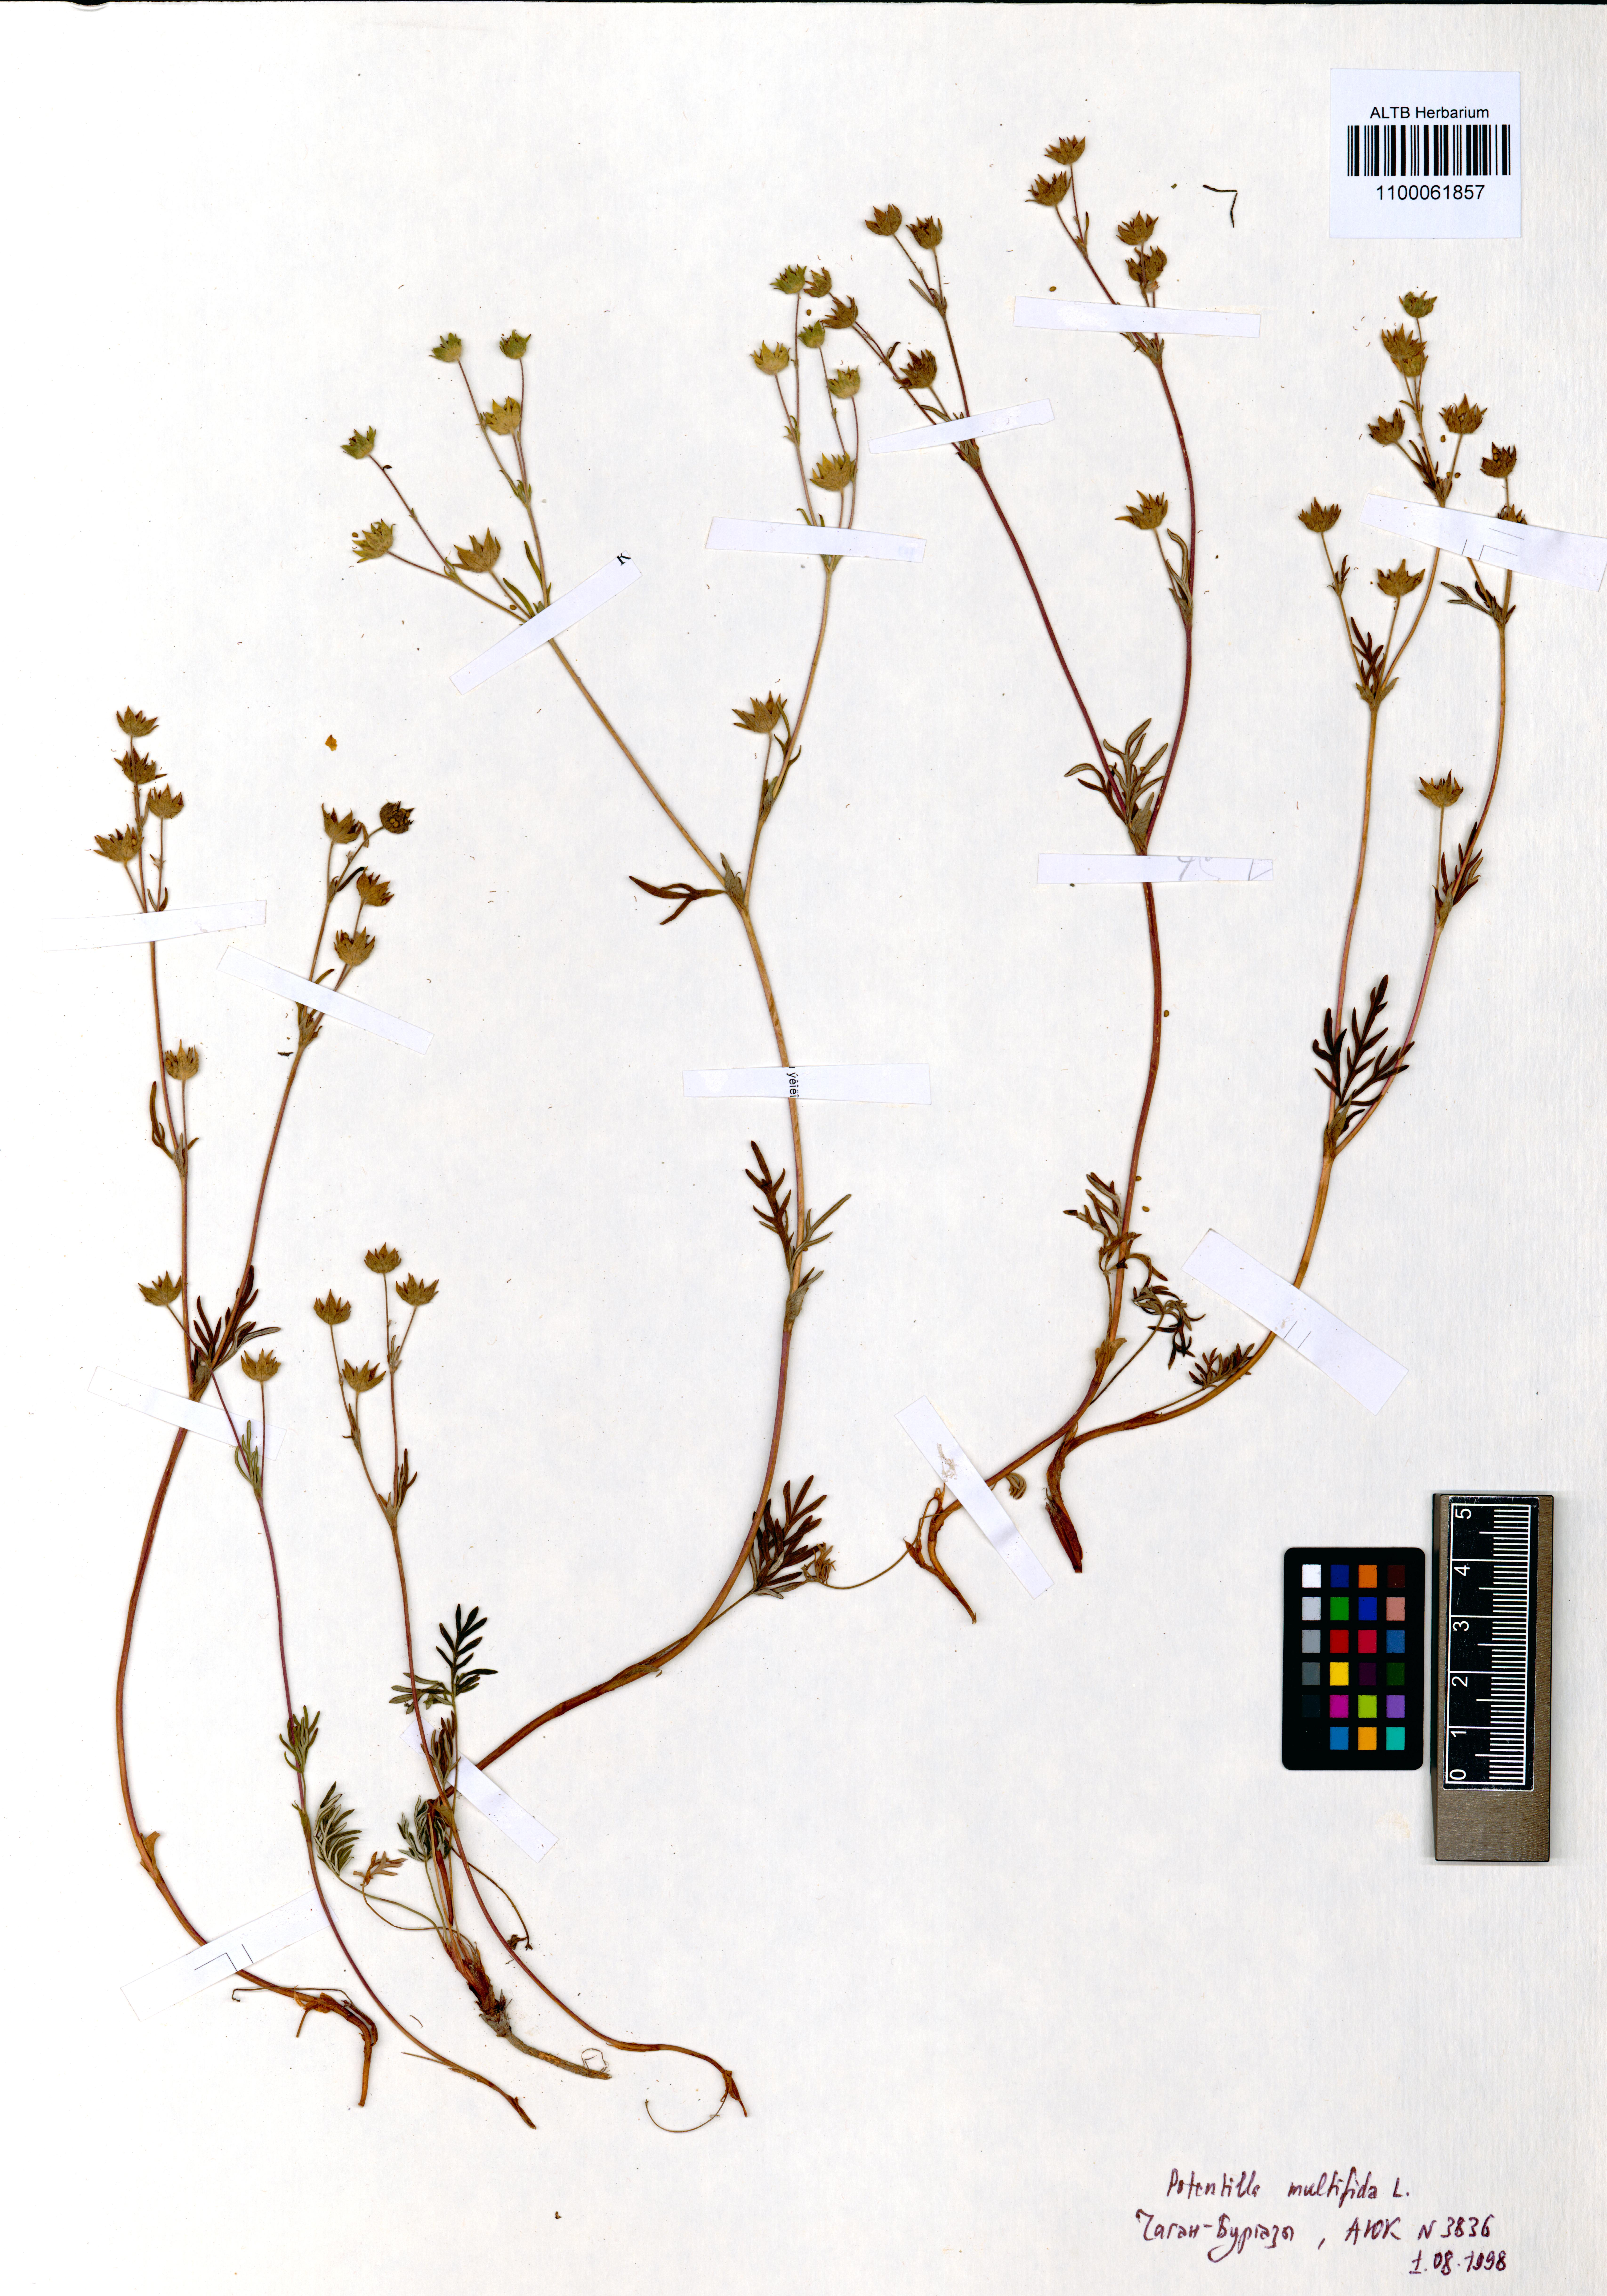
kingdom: Plantae
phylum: Tracheophyta
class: Magnoliopsida
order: Rosales
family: Rosaceae
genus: Potentilla
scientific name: Potentilla multifida
